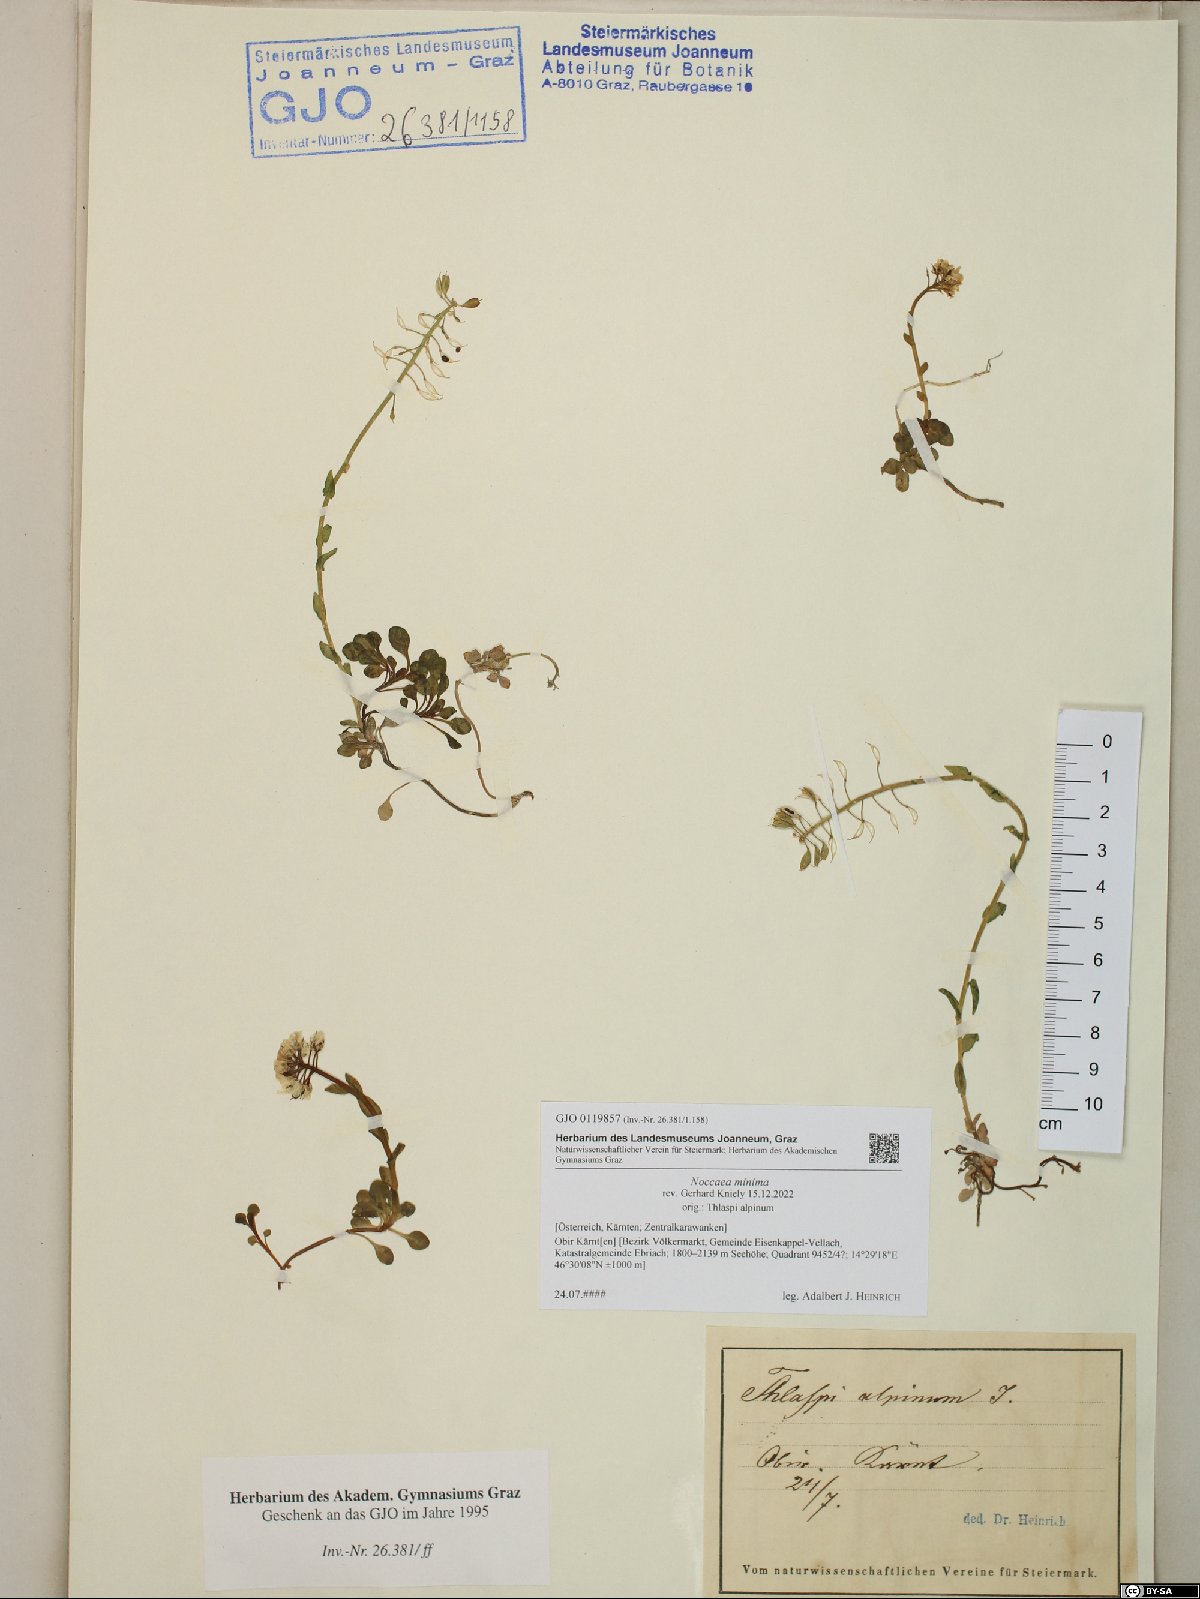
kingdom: Plantae
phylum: Tracheophyta
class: Magnoliopsida
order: Brassicales
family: Brassicaceae
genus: Noccaea
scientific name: Noccaea minima
